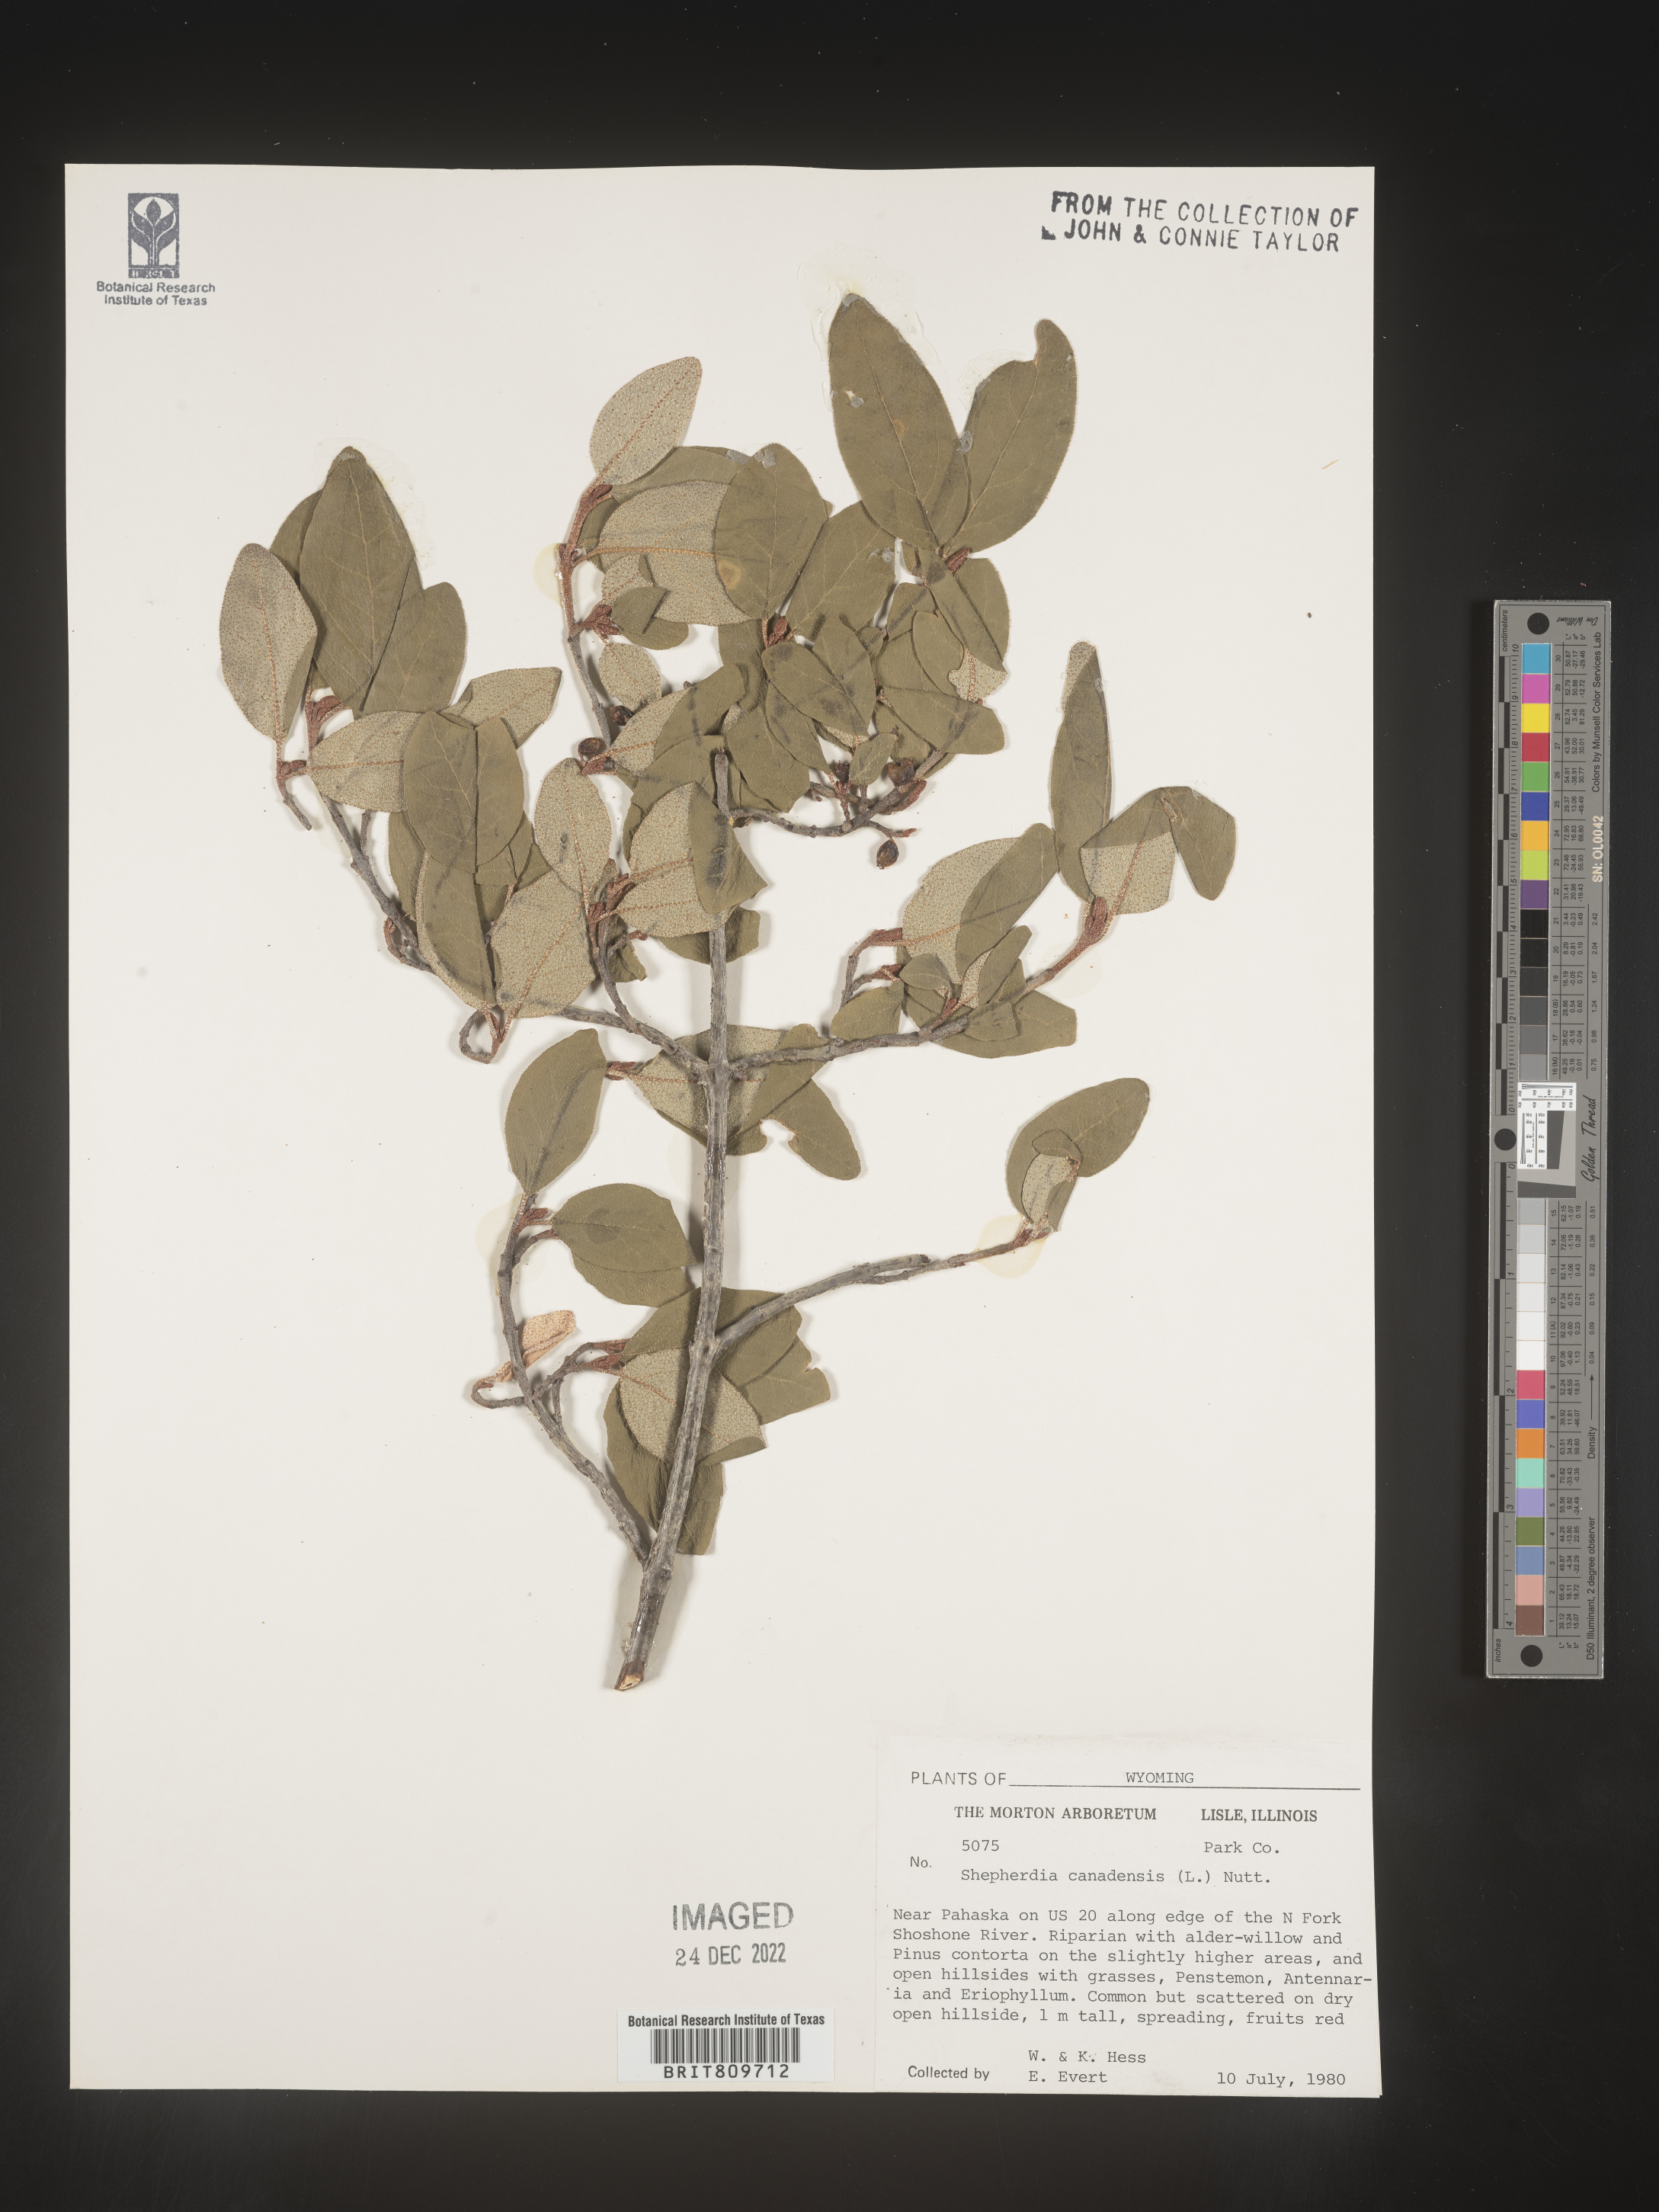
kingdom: Plantae
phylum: Tracheophyta
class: Magnoliopsida
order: Rosales
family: Elaeagnaceae
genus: Shepherdia
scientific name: Shepherdia canadensis
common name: Soapberry
